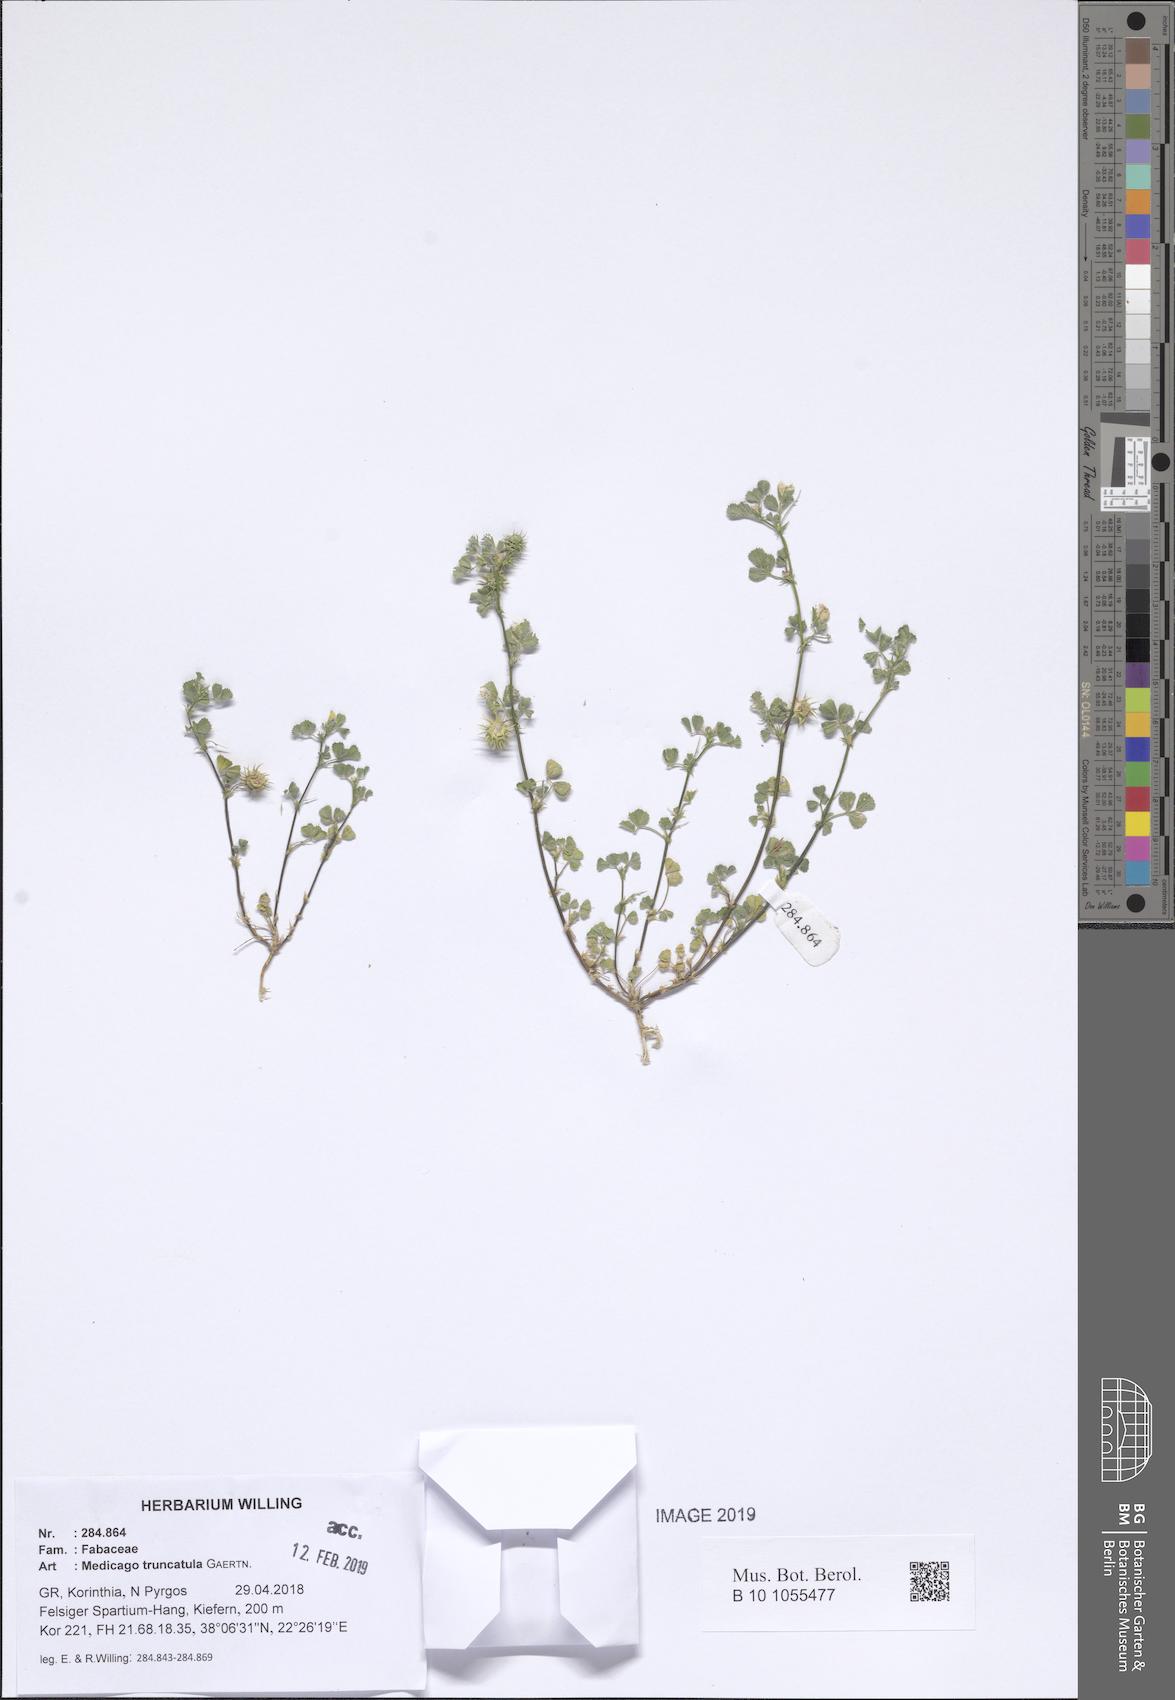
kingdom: Plantae
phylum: Tracheophyta
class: Magnoliopsida
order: Fabales
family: Fabaceae
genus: Medicago
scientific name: Medicago truncatula
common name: Strong-spined medick
